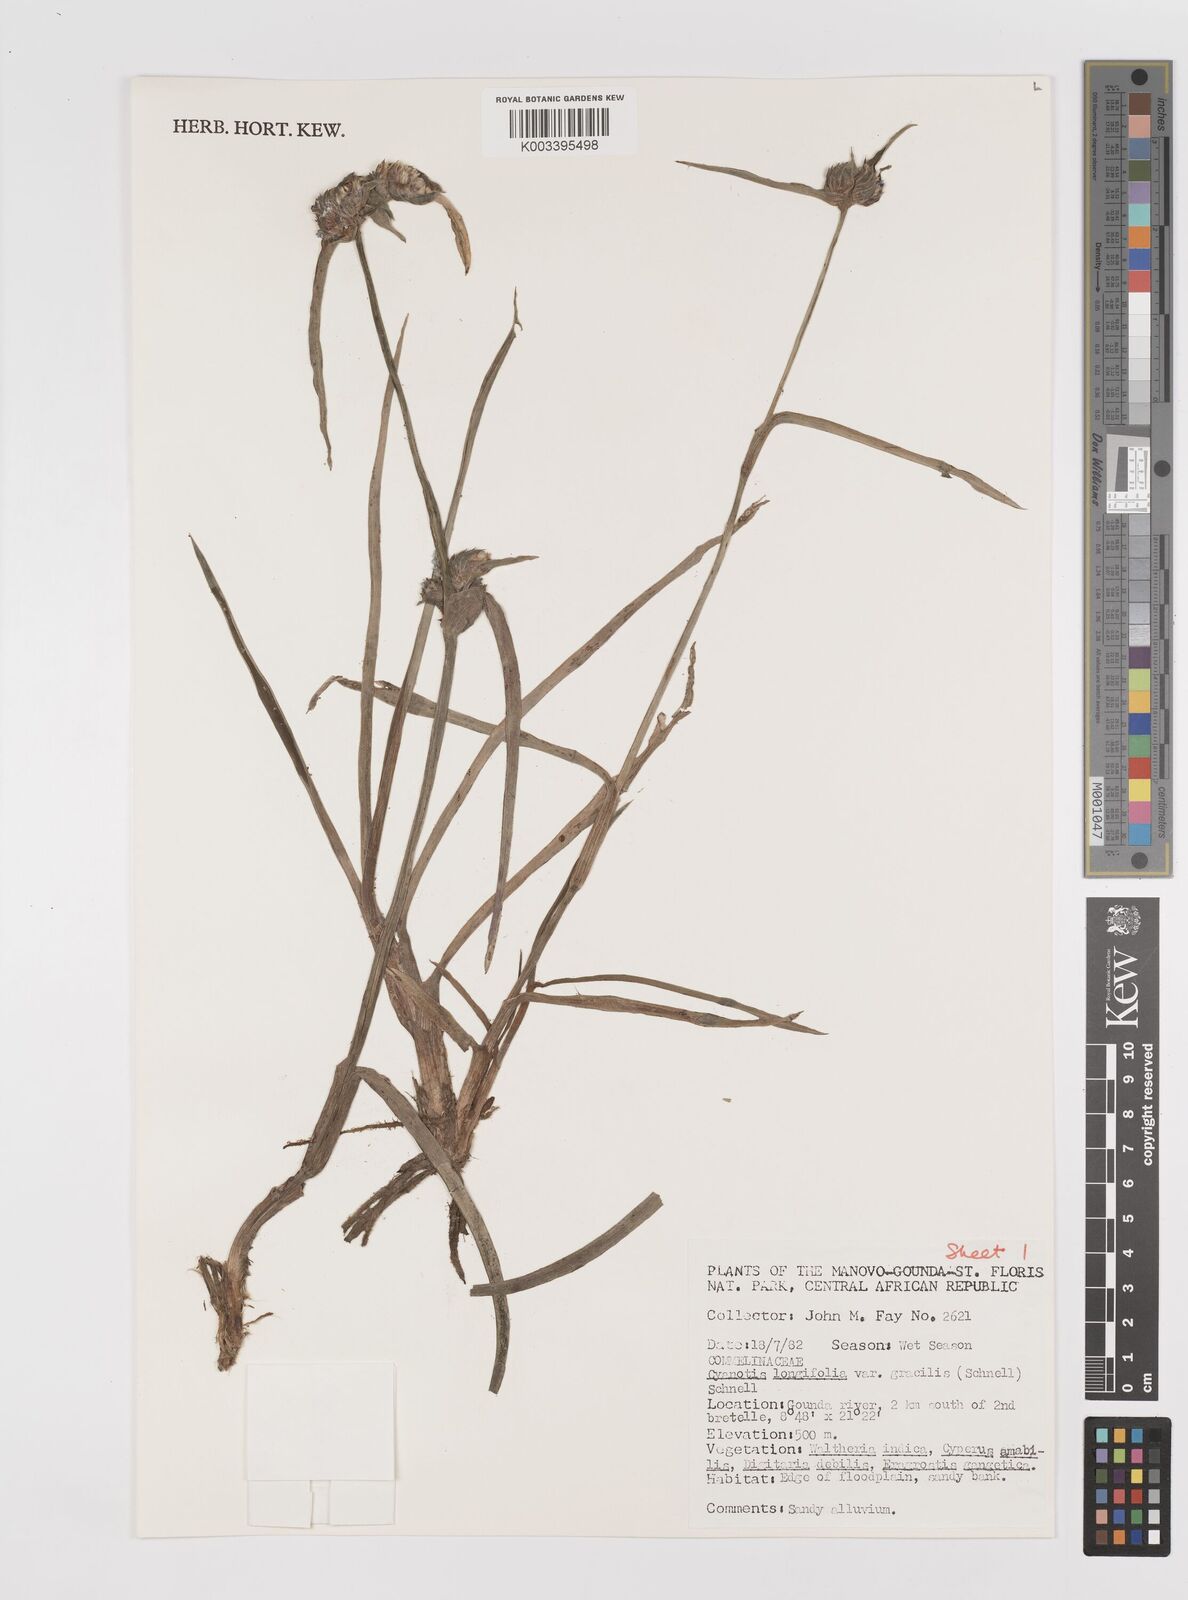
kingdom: Plantae
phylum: Tracheophyta
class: Liliopsida
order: Commelinales
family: Commelinaceae
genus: Cyanotis
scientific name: Cyanotis longifolia
